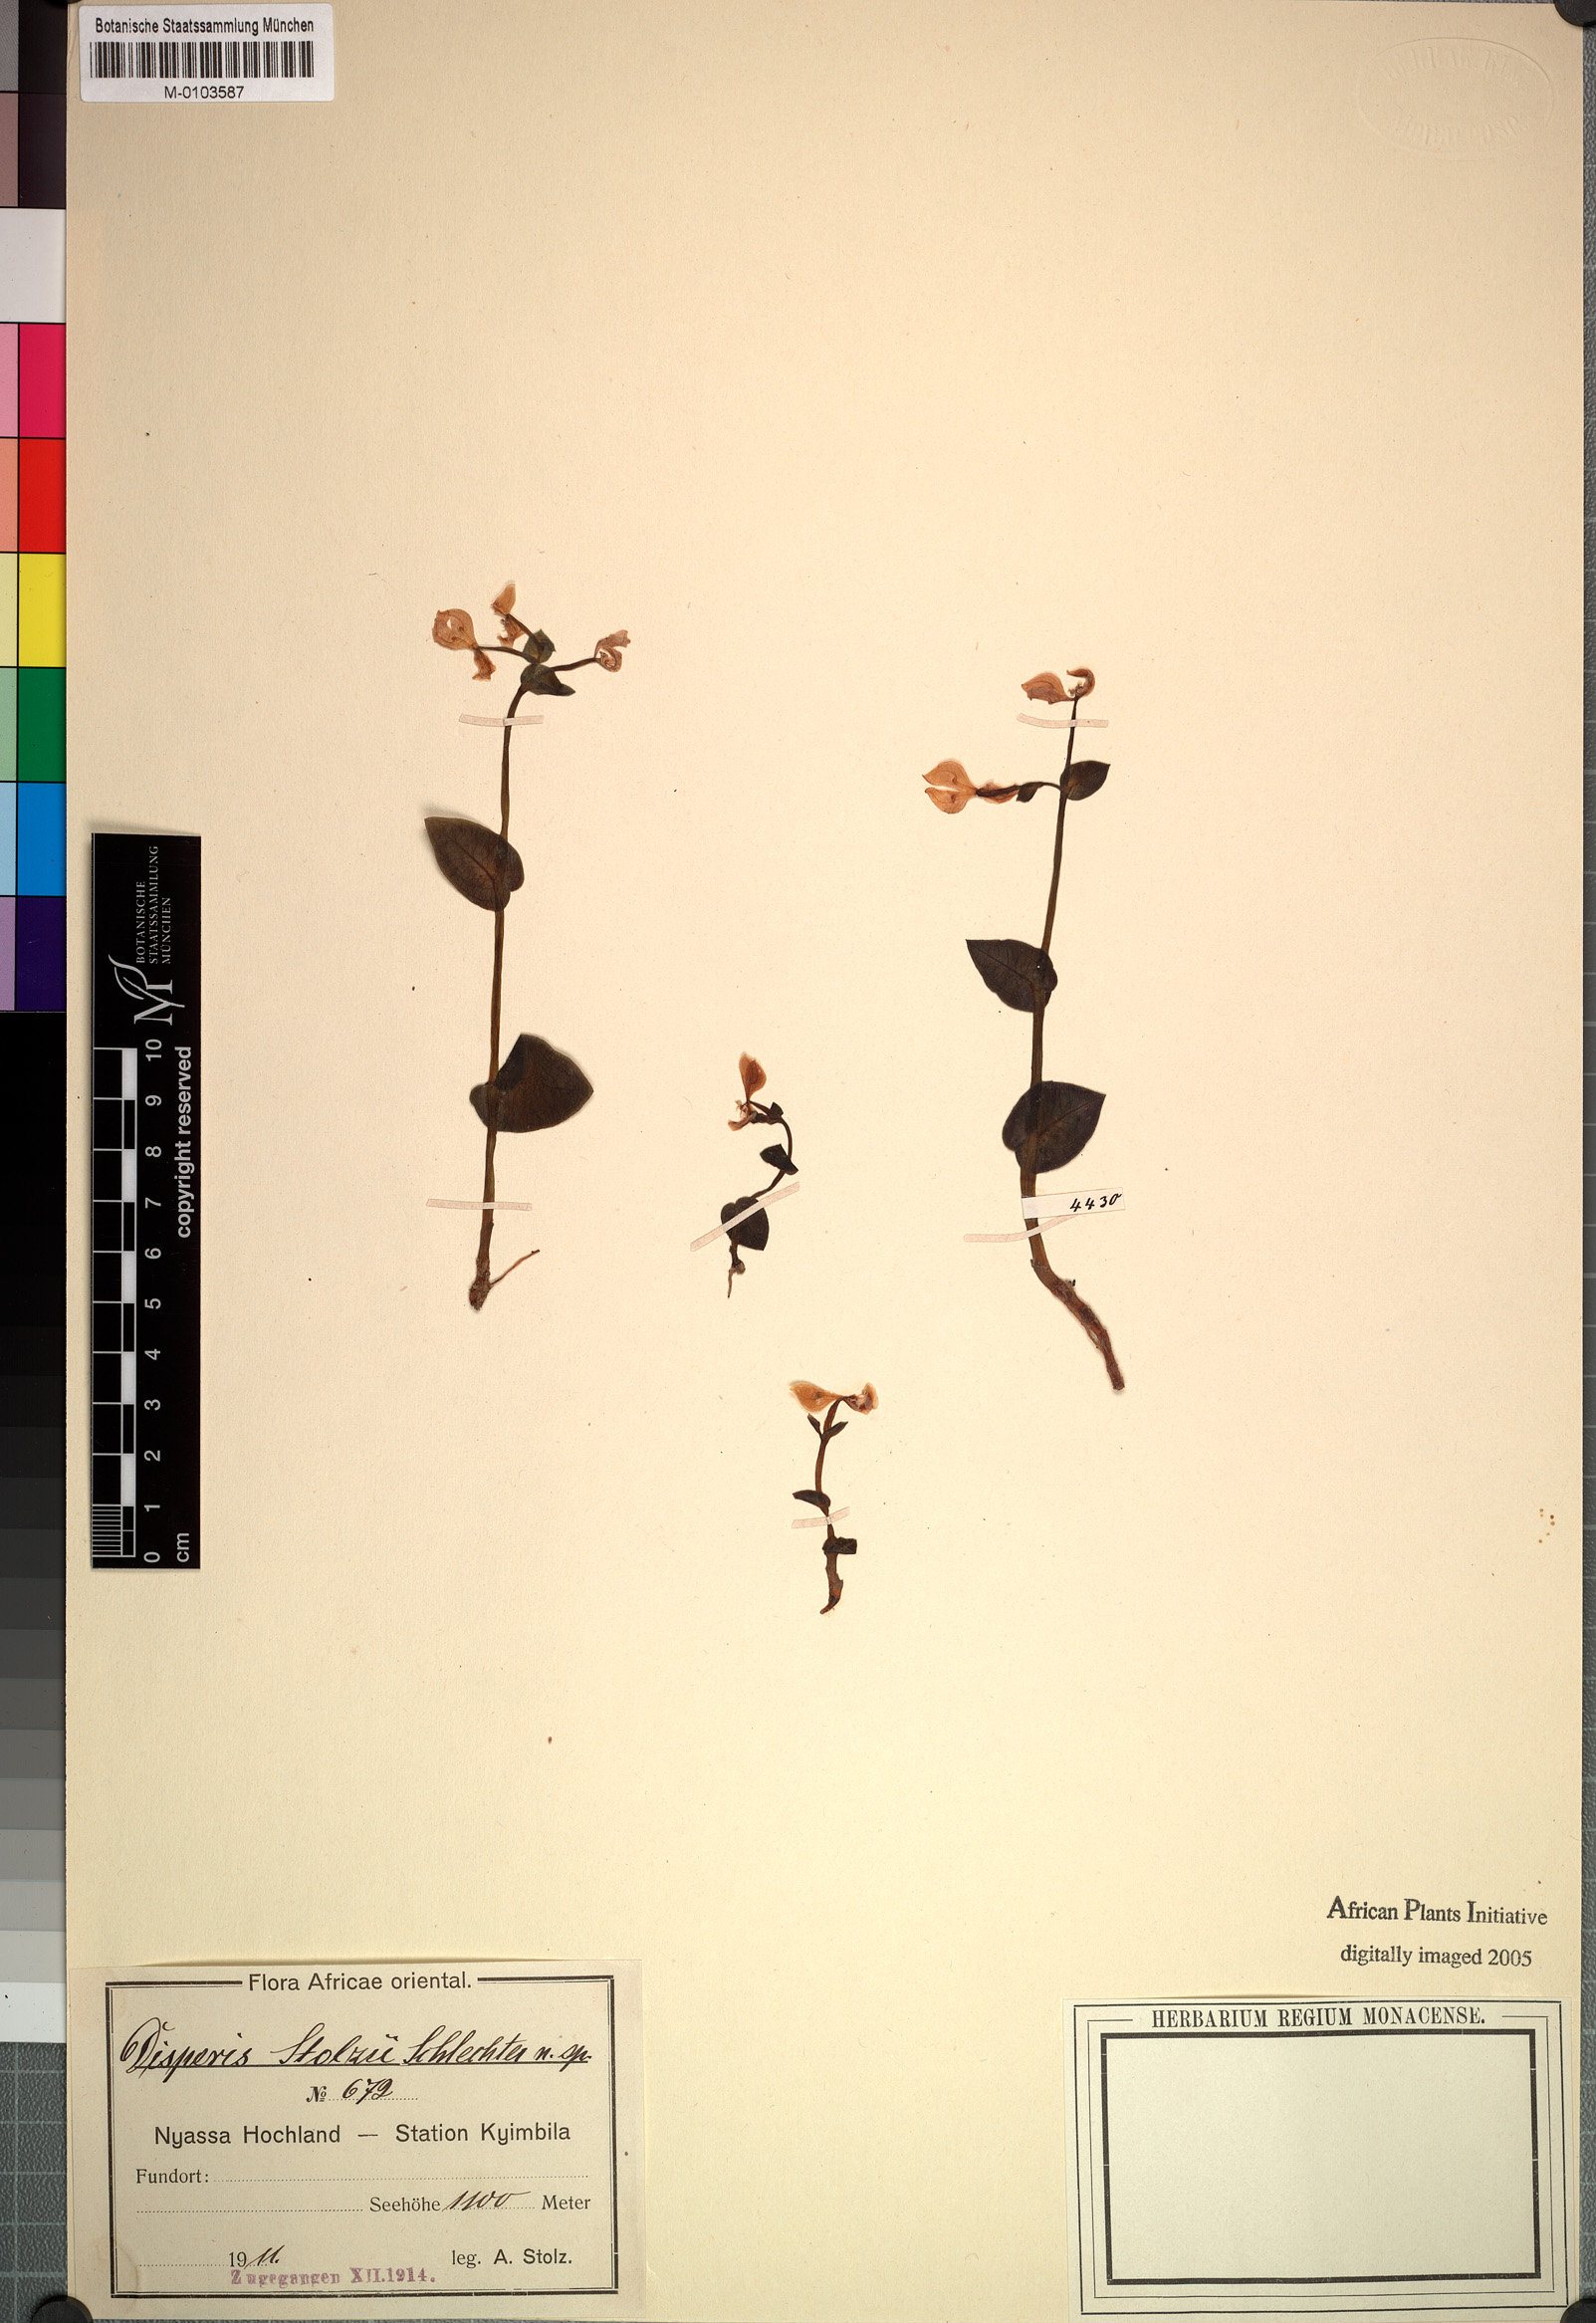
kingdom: Plantae
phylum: Tracheophyta
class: Liliopsida
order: Asparagales
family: Orchidaceae
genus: Disperis
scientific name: Disperis johnstonii
